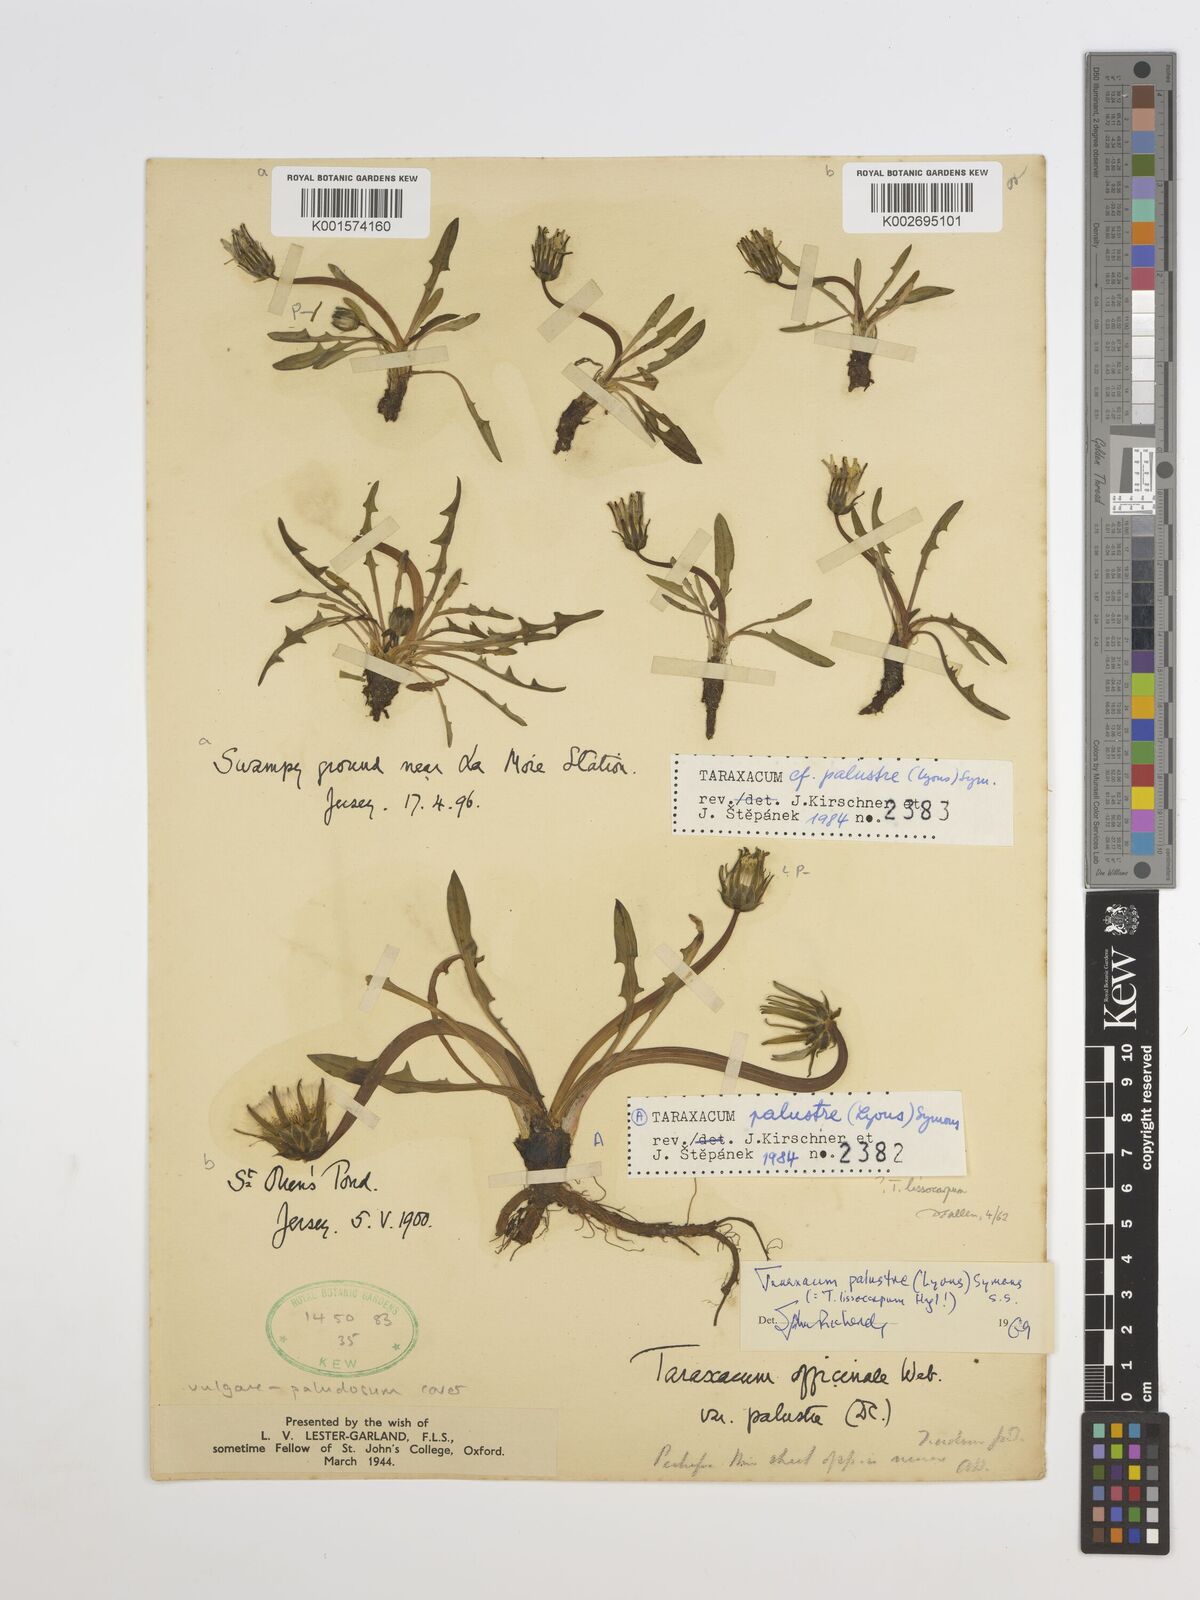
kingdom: Plantae
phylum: Tracheophyta
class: Magnoliopsida
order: Asterales
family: Asteraceae
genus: Taraxacum
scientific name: Taraxacum palustre
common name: Marsh dandelion
